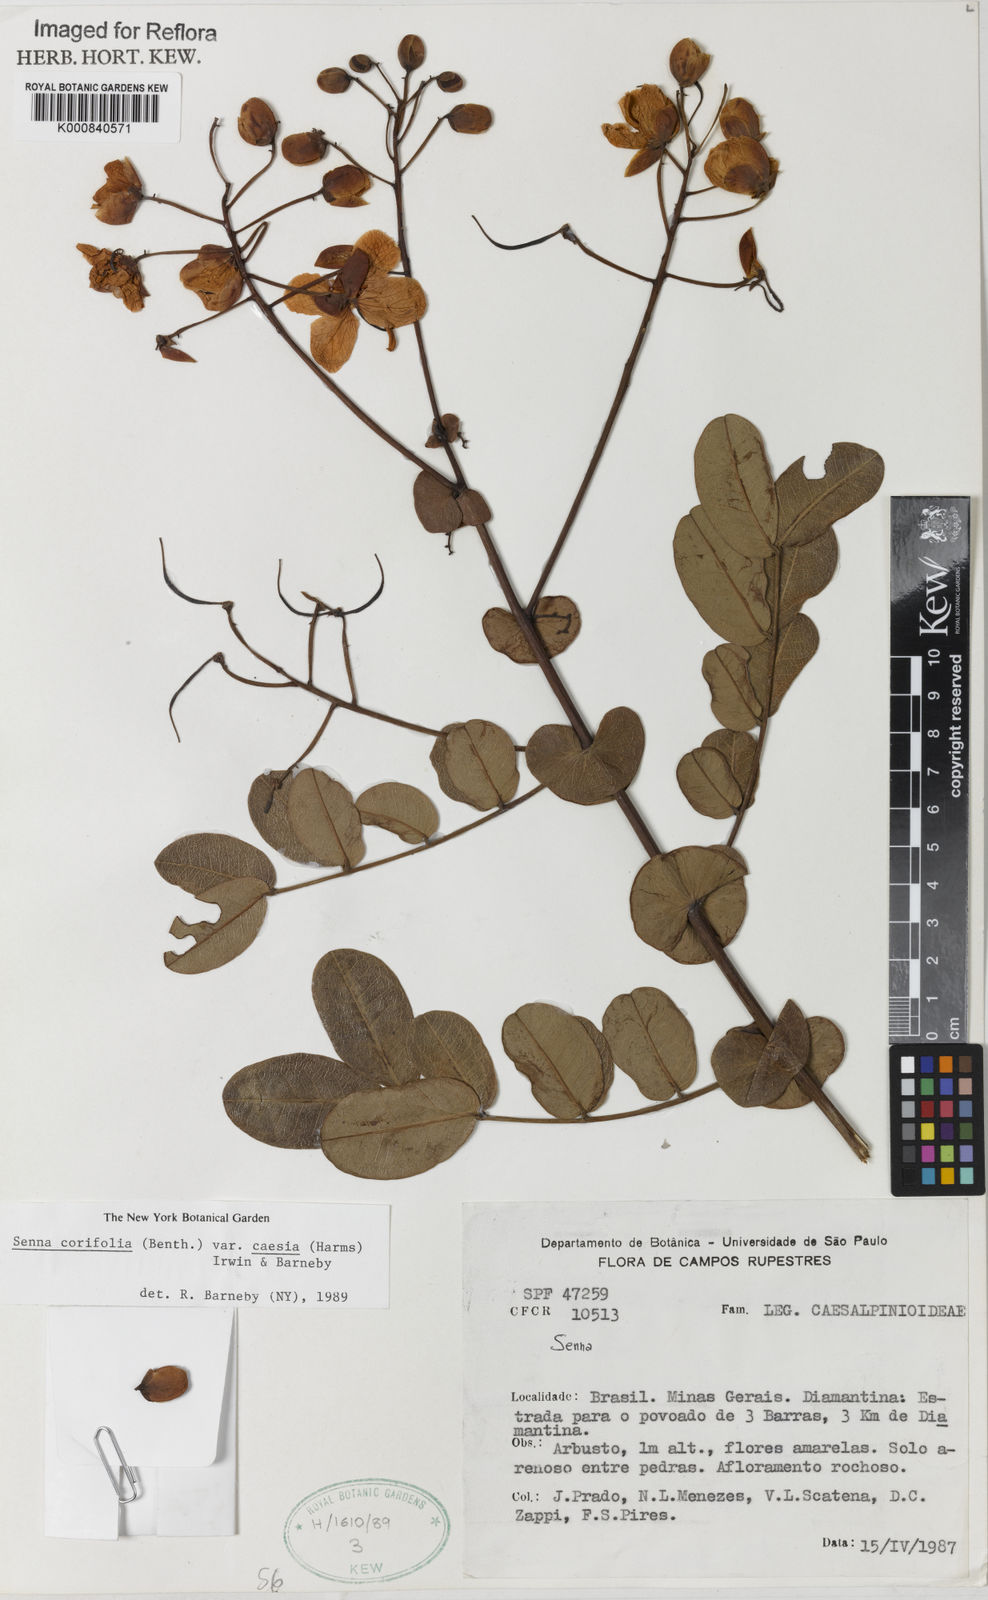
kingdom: Plantae
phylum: Tracheophyta
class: Magnoliopsida
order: Fabales
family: Fabaceae
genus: Senna
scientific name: Senna corifolia
